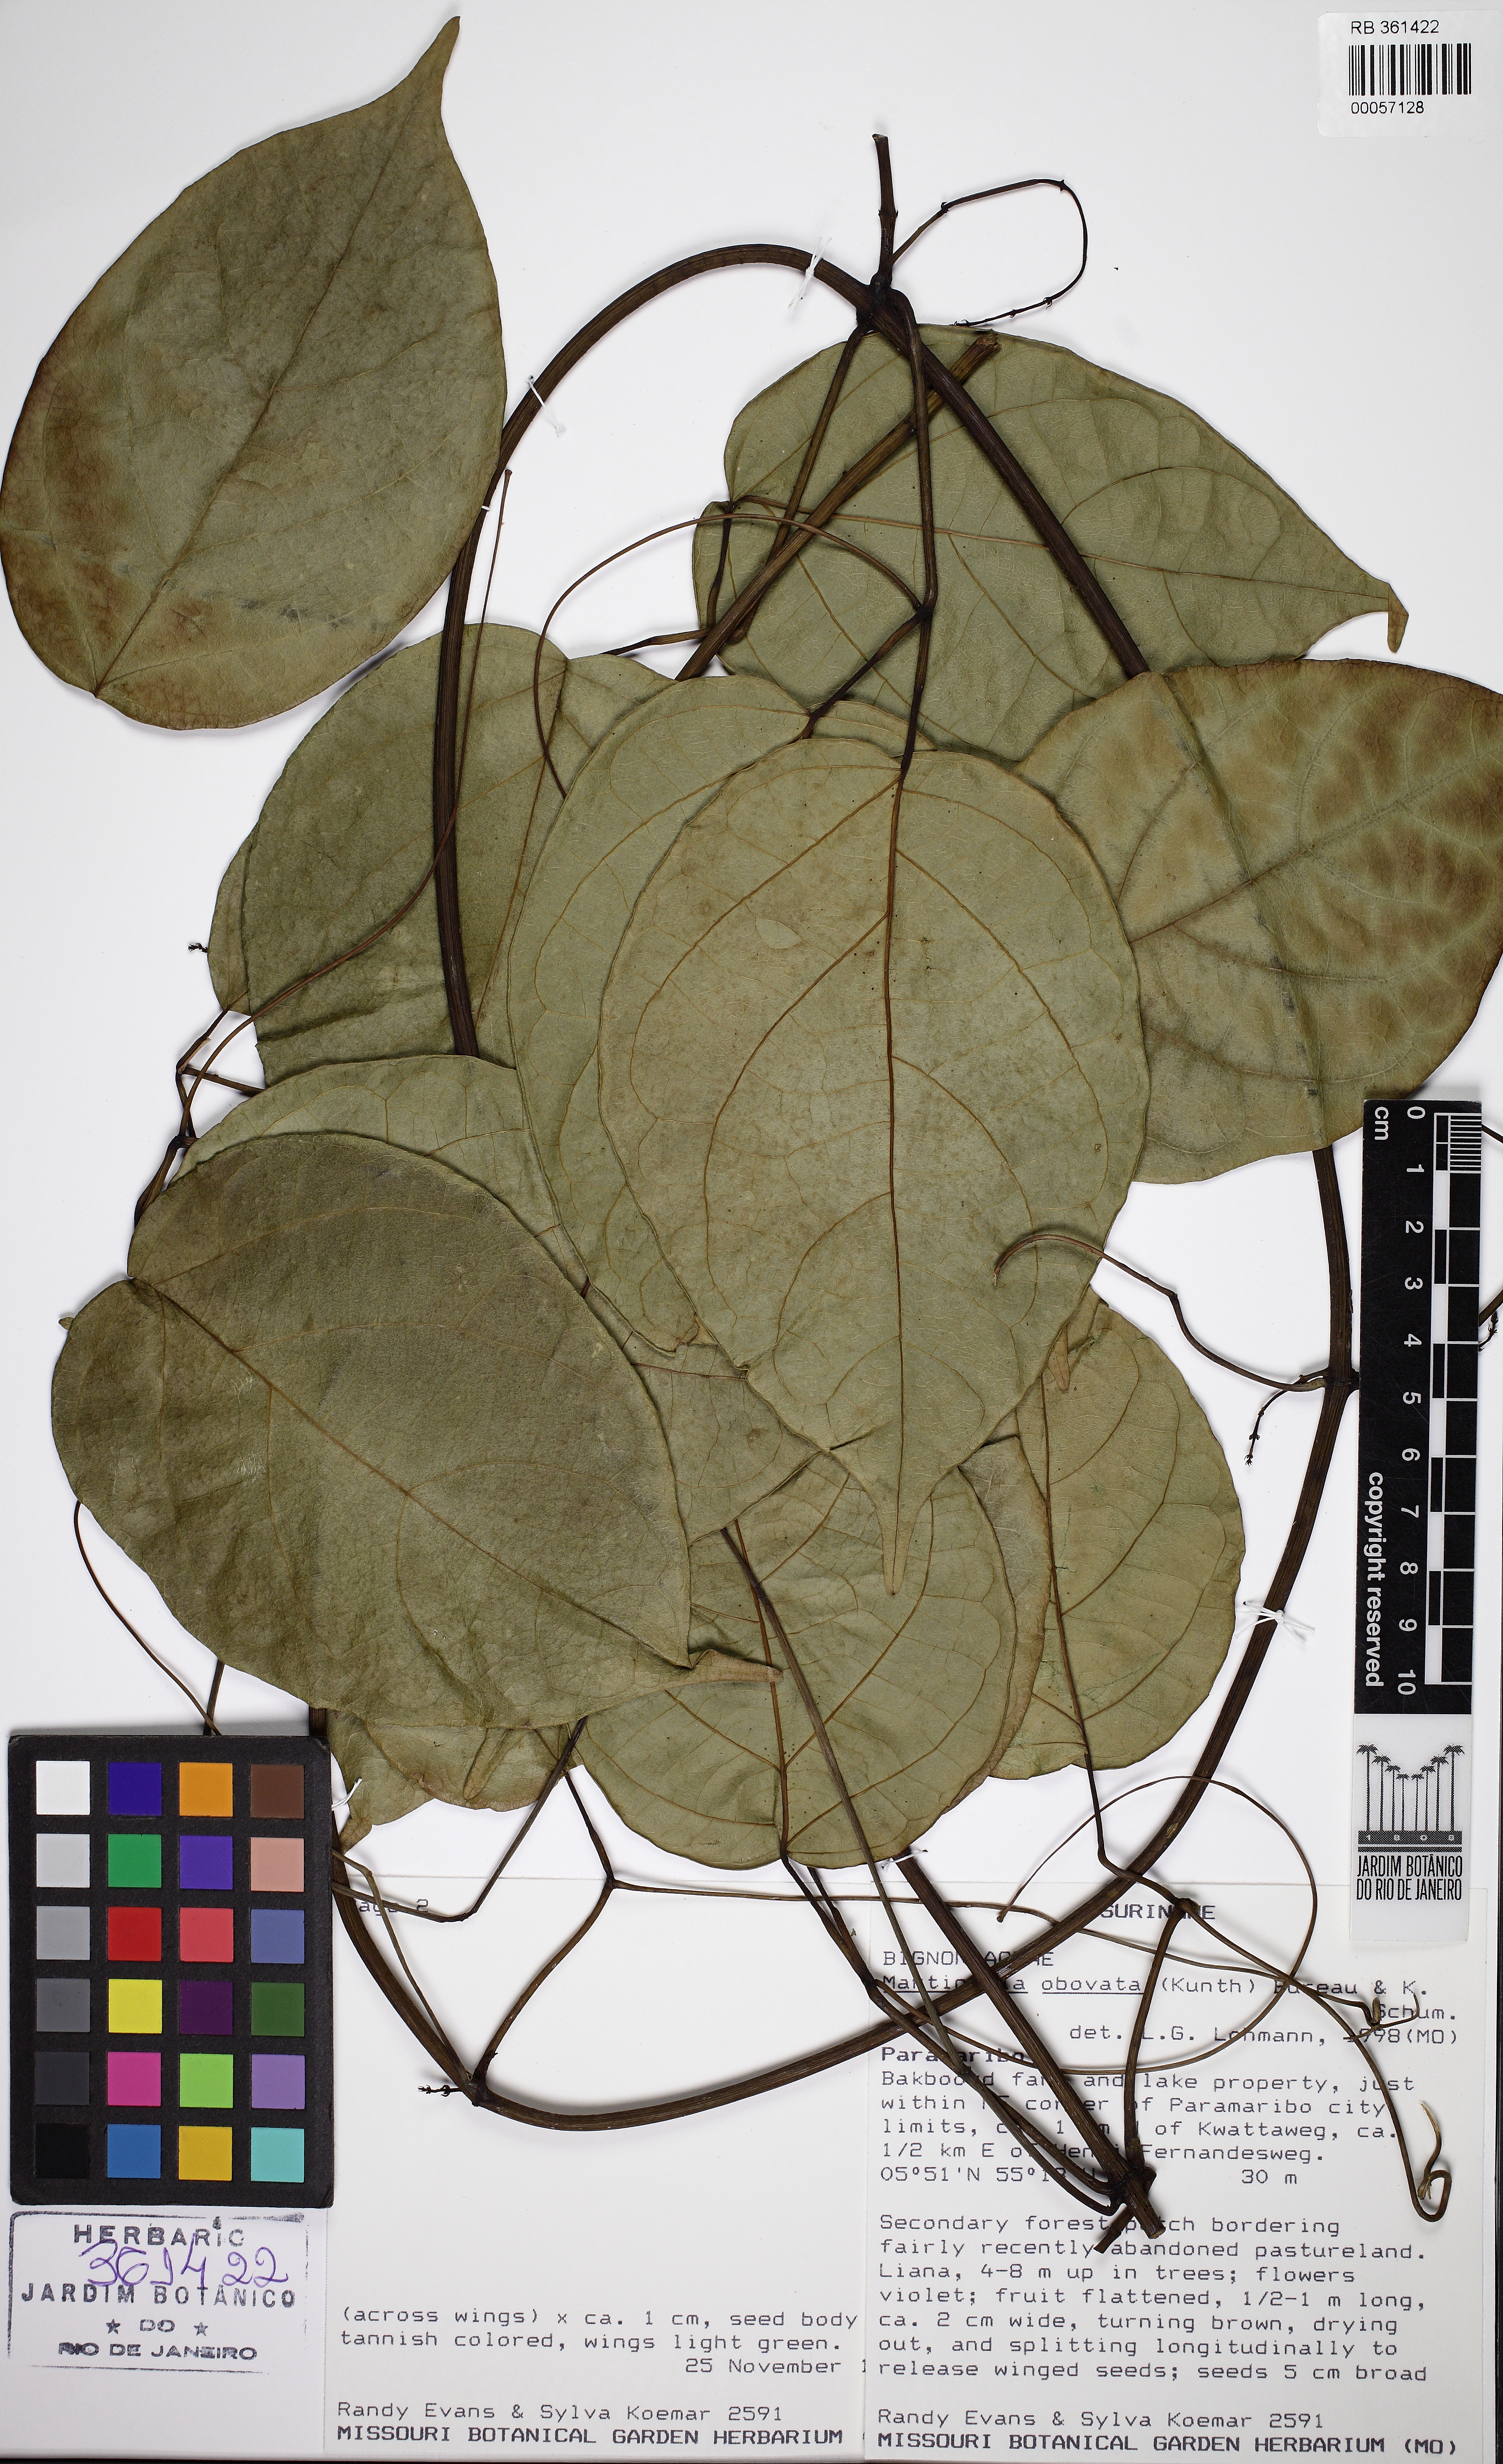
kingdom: Animalia
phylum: Arthropoda
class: Insecta
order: Coleoptera
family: Chrysomelidae
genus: Martinella
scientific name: Martinella obovata
